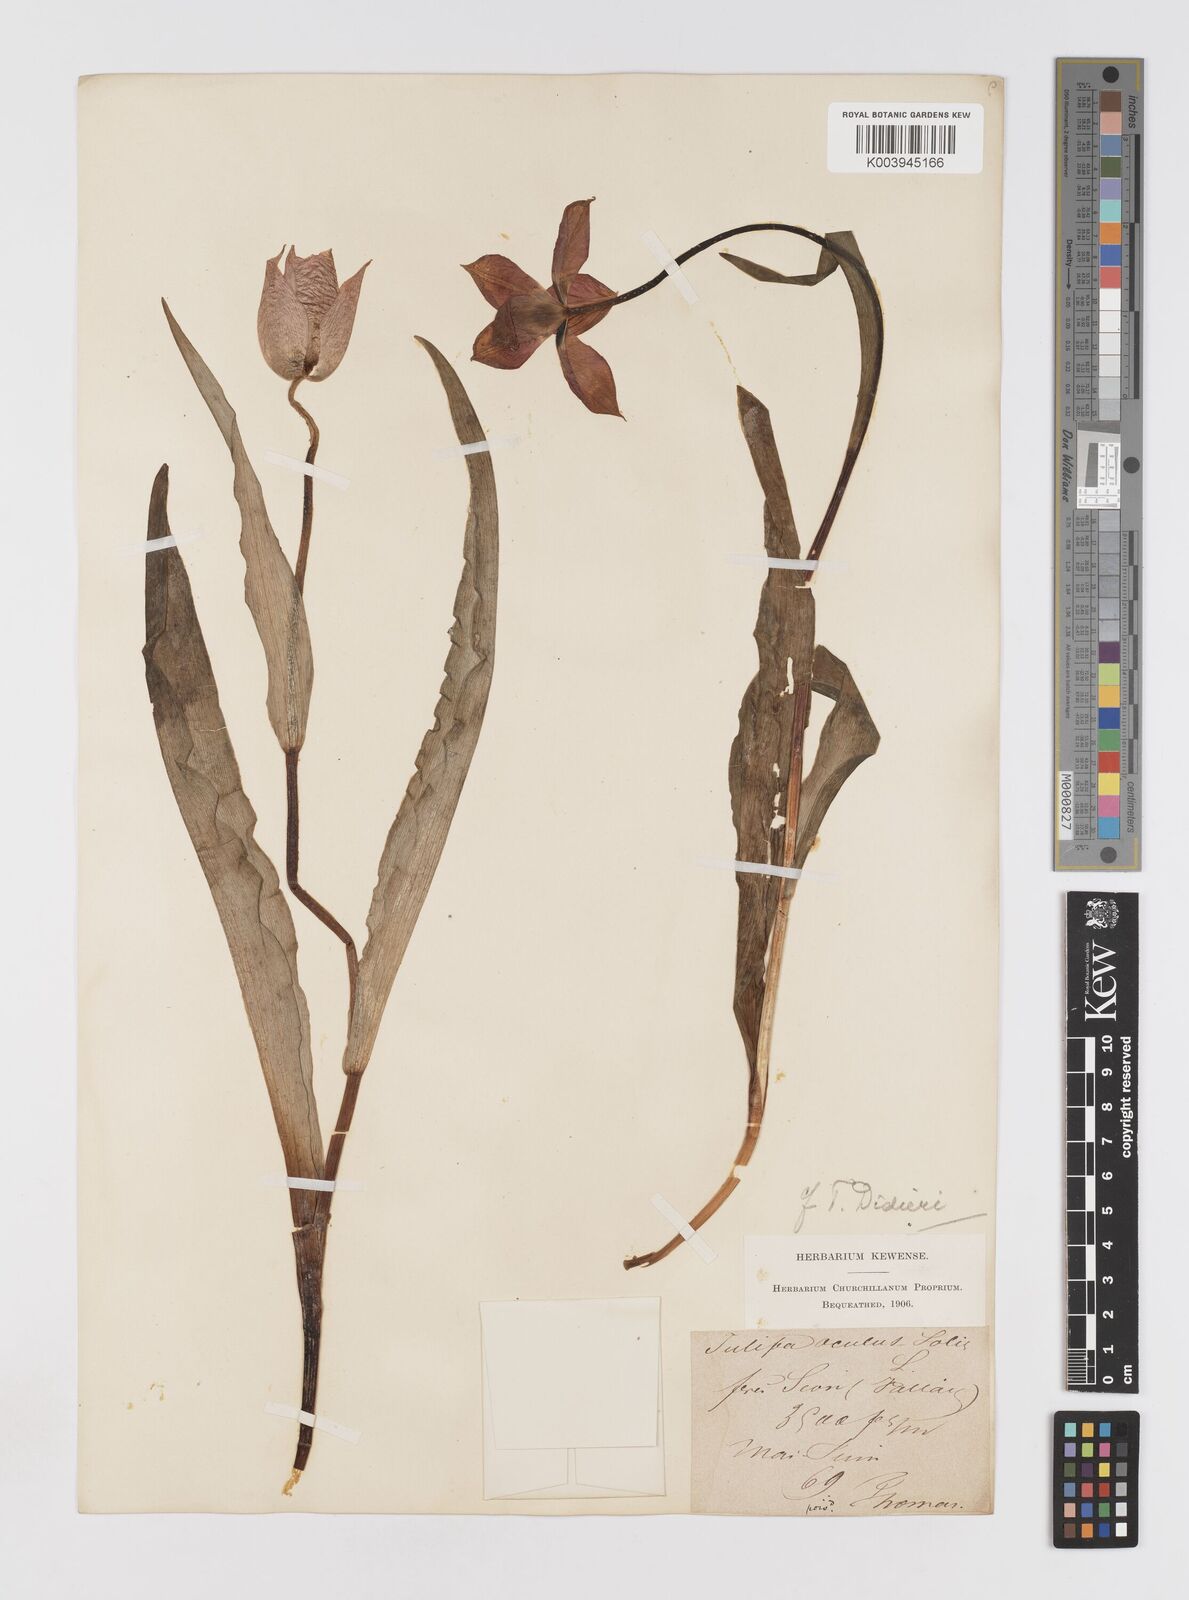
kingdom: Plantae
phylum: Tracheophyta
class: Liliopsida
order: Liliales
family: Liliaceae
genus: Tulipa
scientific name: Tulipa gesneriana
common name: Garden tulip
